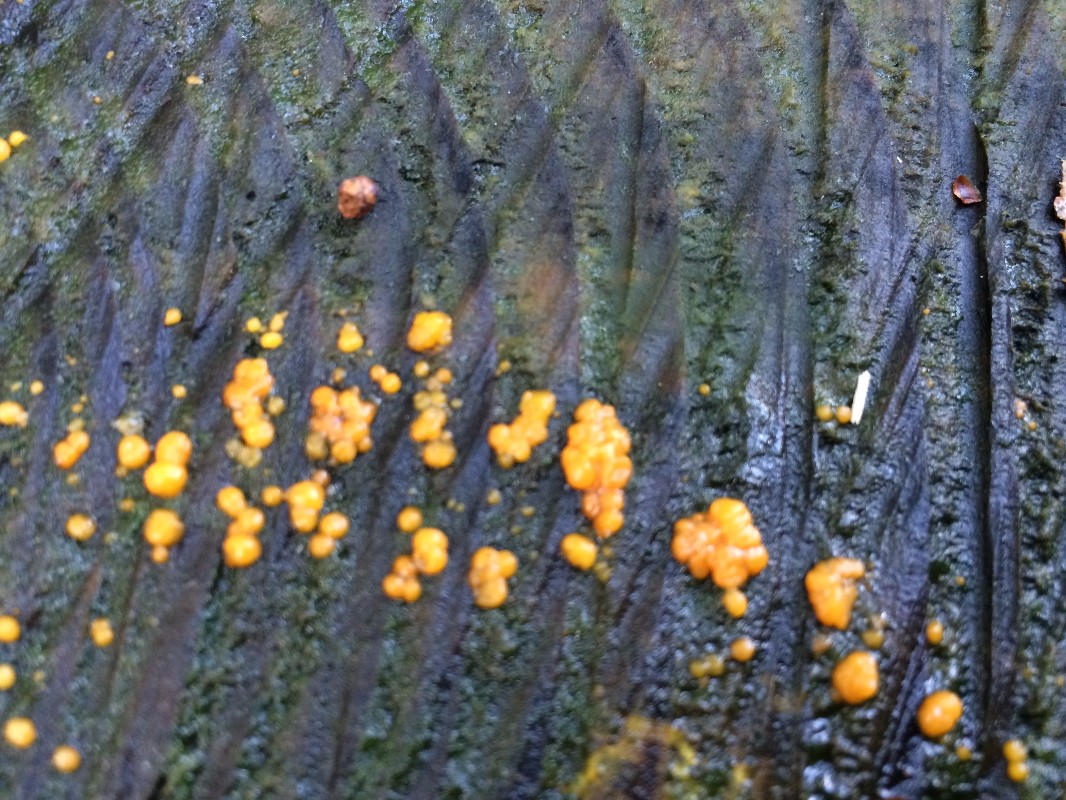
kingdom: Fungi
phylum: Basidiomycota
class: Dacrymycetes
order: Dacrymycetales
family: Dacrymycetaceae
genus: Dacrymyces
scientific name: Dacrymyces stillatus
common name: almindelig tåresvamp
